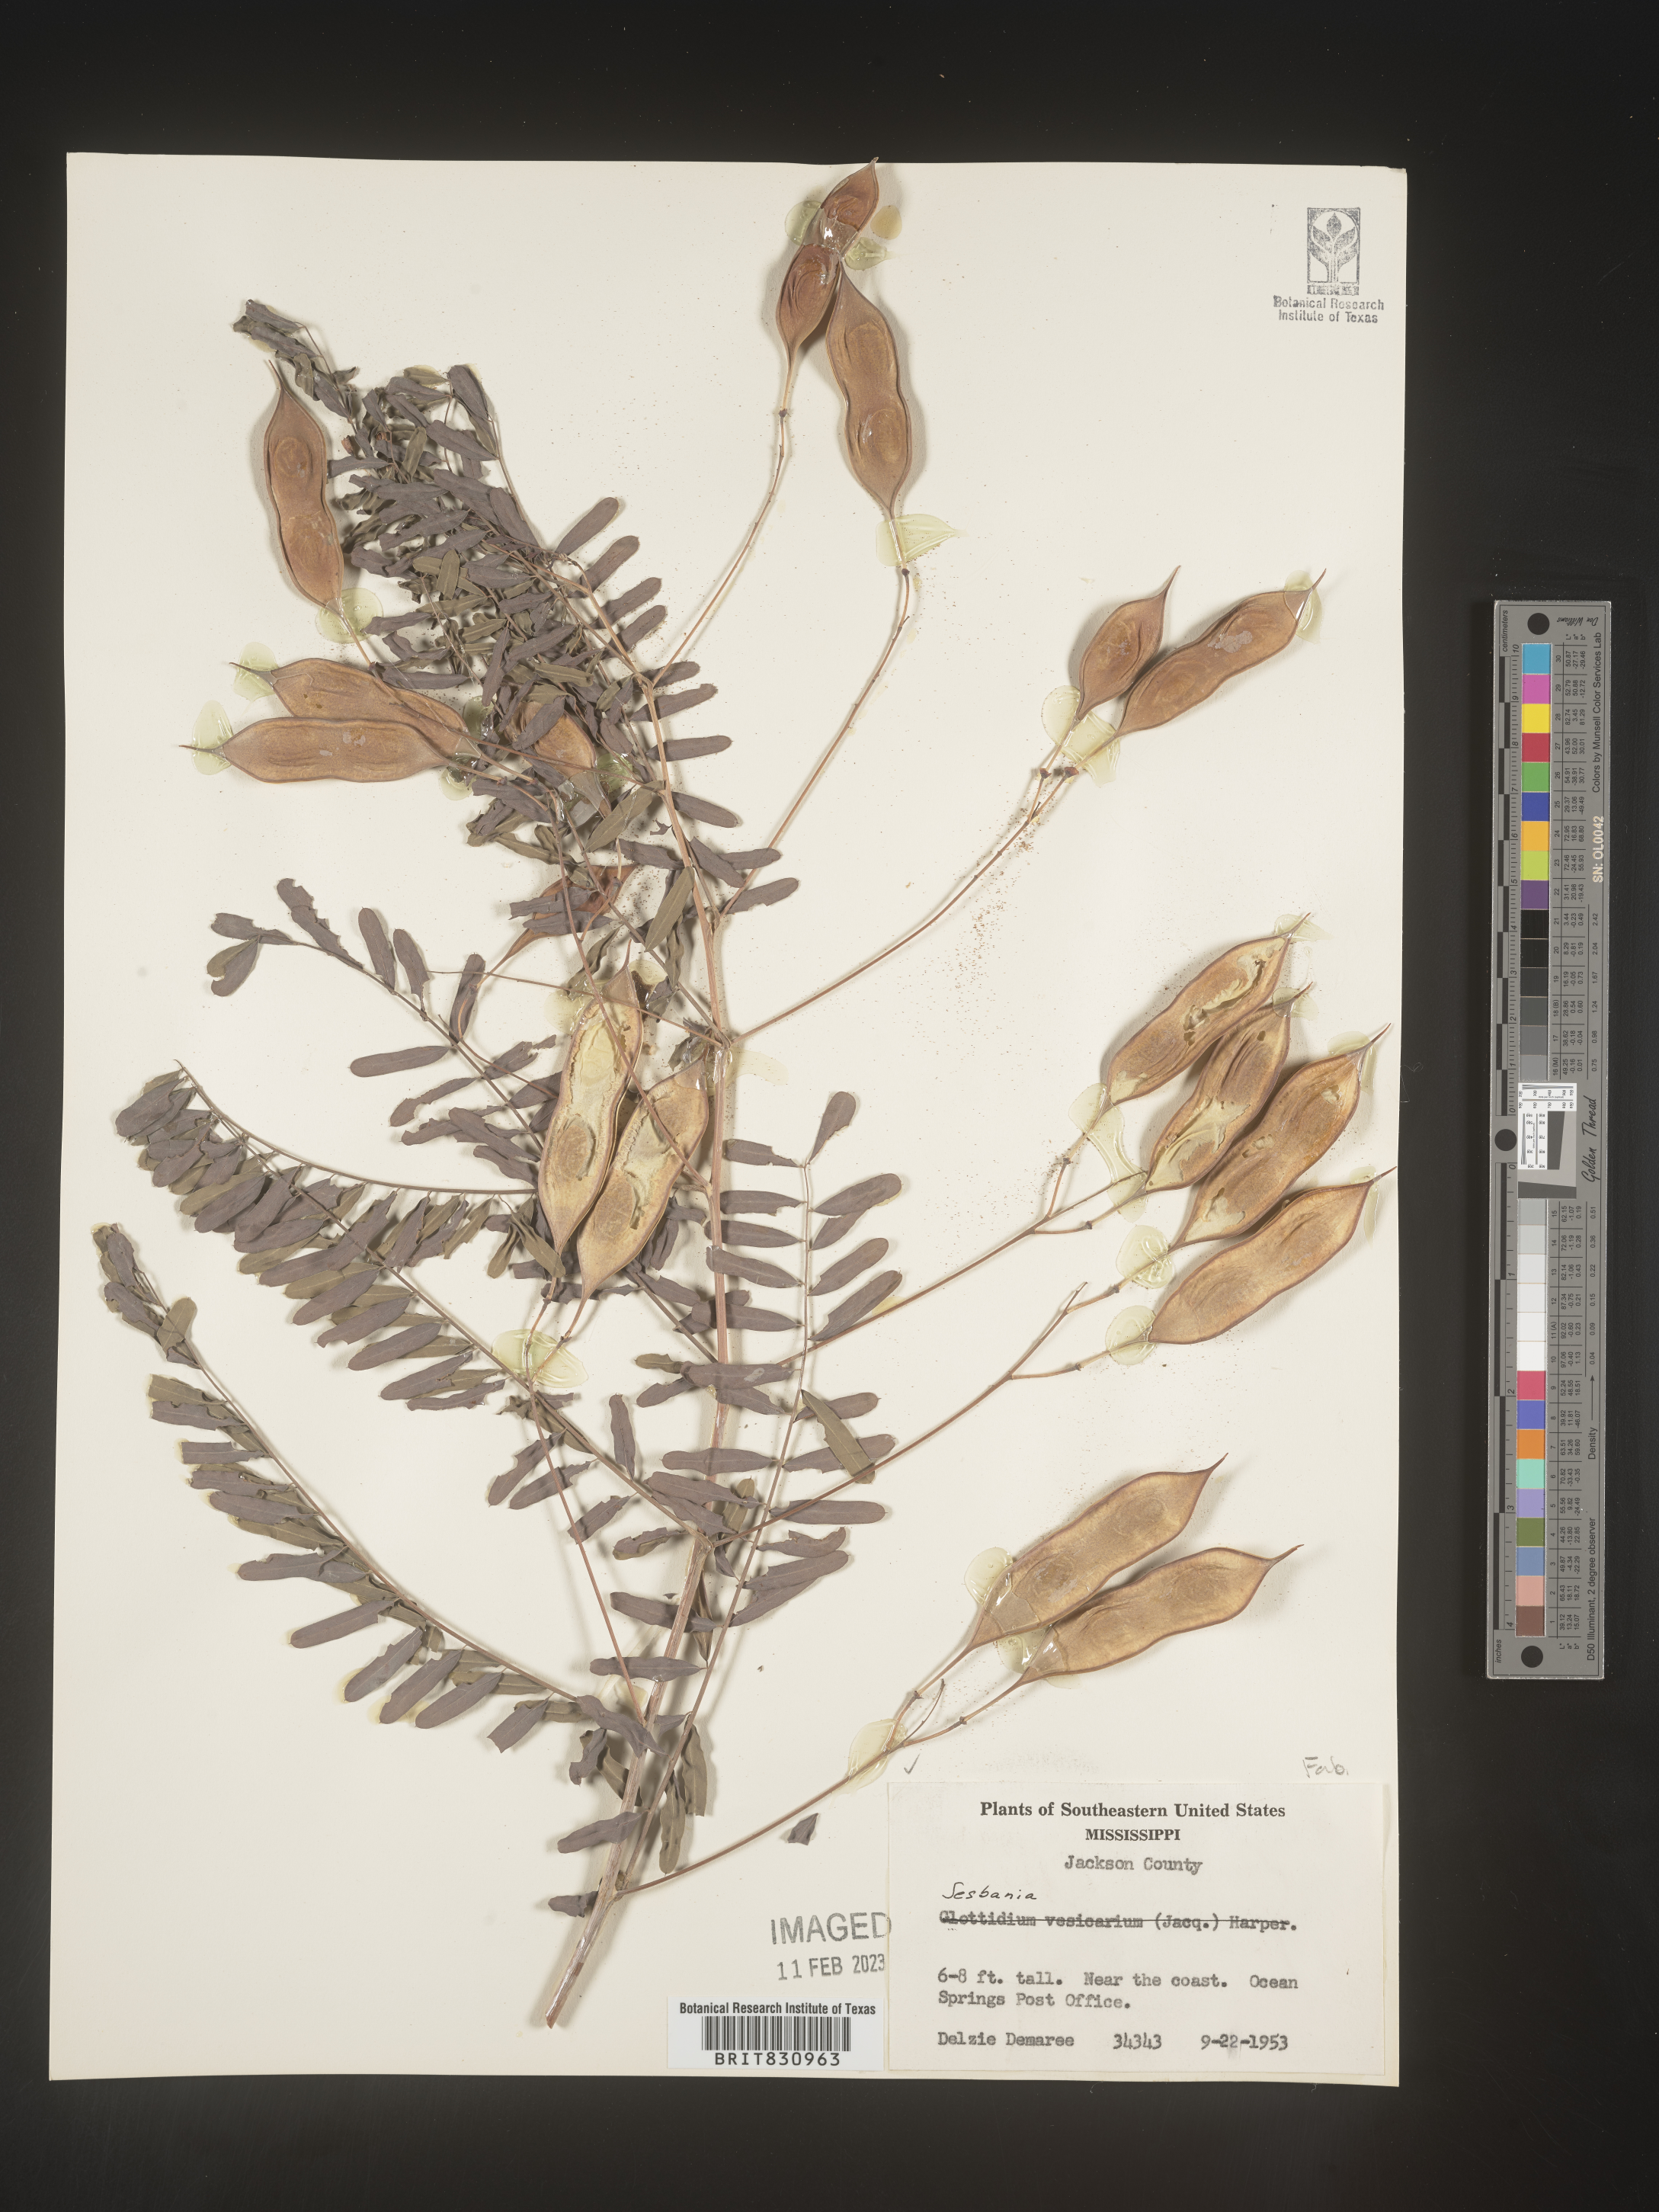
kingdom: Plantae
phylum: Tracheophyta
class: Magnoliopsida
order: Fabales
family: Fabaceae
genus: Sesbania
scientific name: Sesbania
